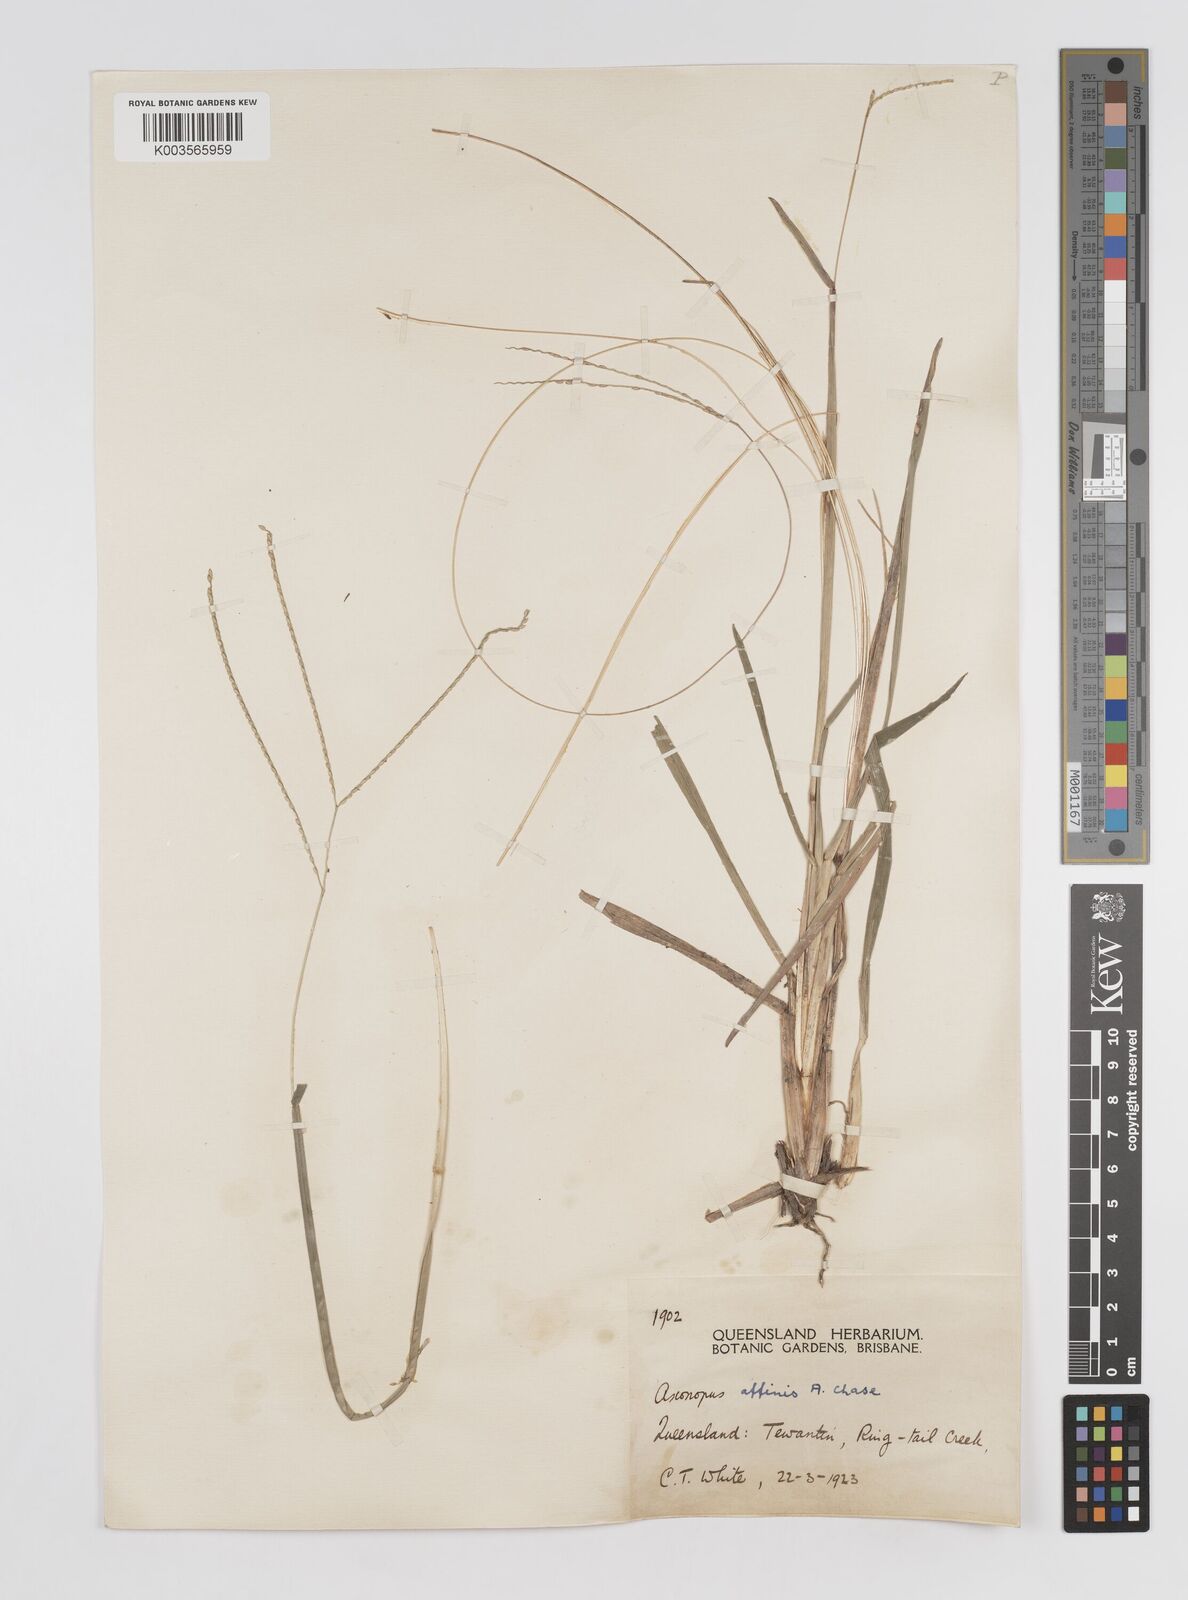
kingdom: Plantae
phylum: Tracheophyta
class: Liliopsida
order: Poales
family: Poaceae
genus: Axonopus
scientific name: Axonopus fissifolius
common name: Common carpetgrass
